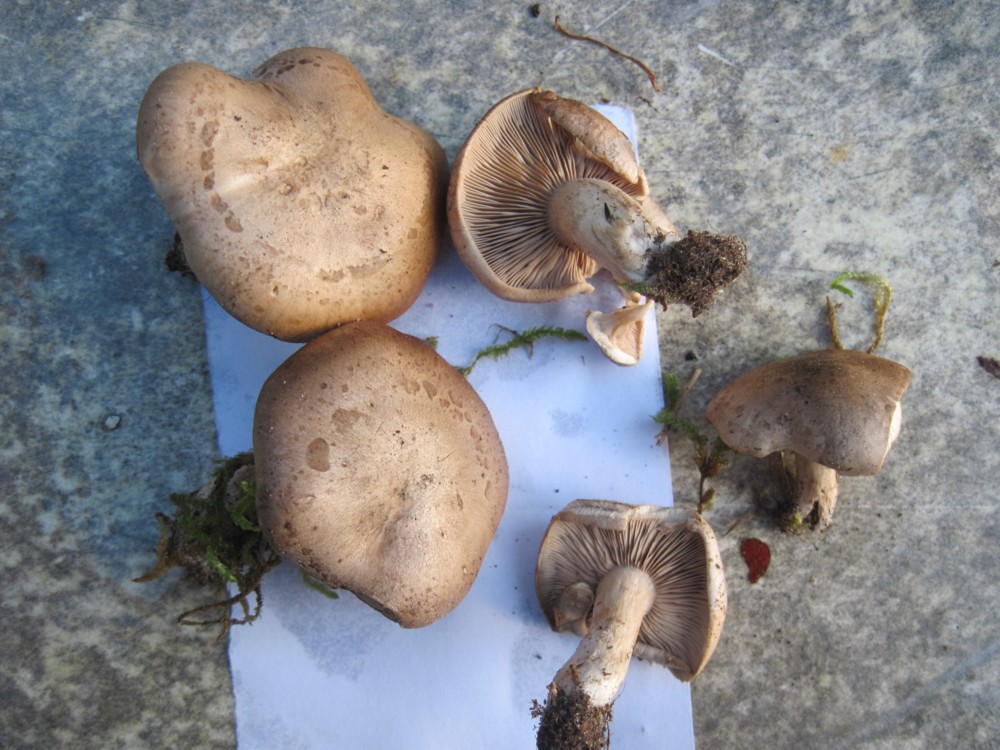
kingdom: Fungi
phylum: Basidiomycota
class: Agaricomycetes
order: Agaricales
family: Tricholomataceae
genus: Lepista
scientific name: Lepista panaeolus
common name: marmoreret hekseringshat
